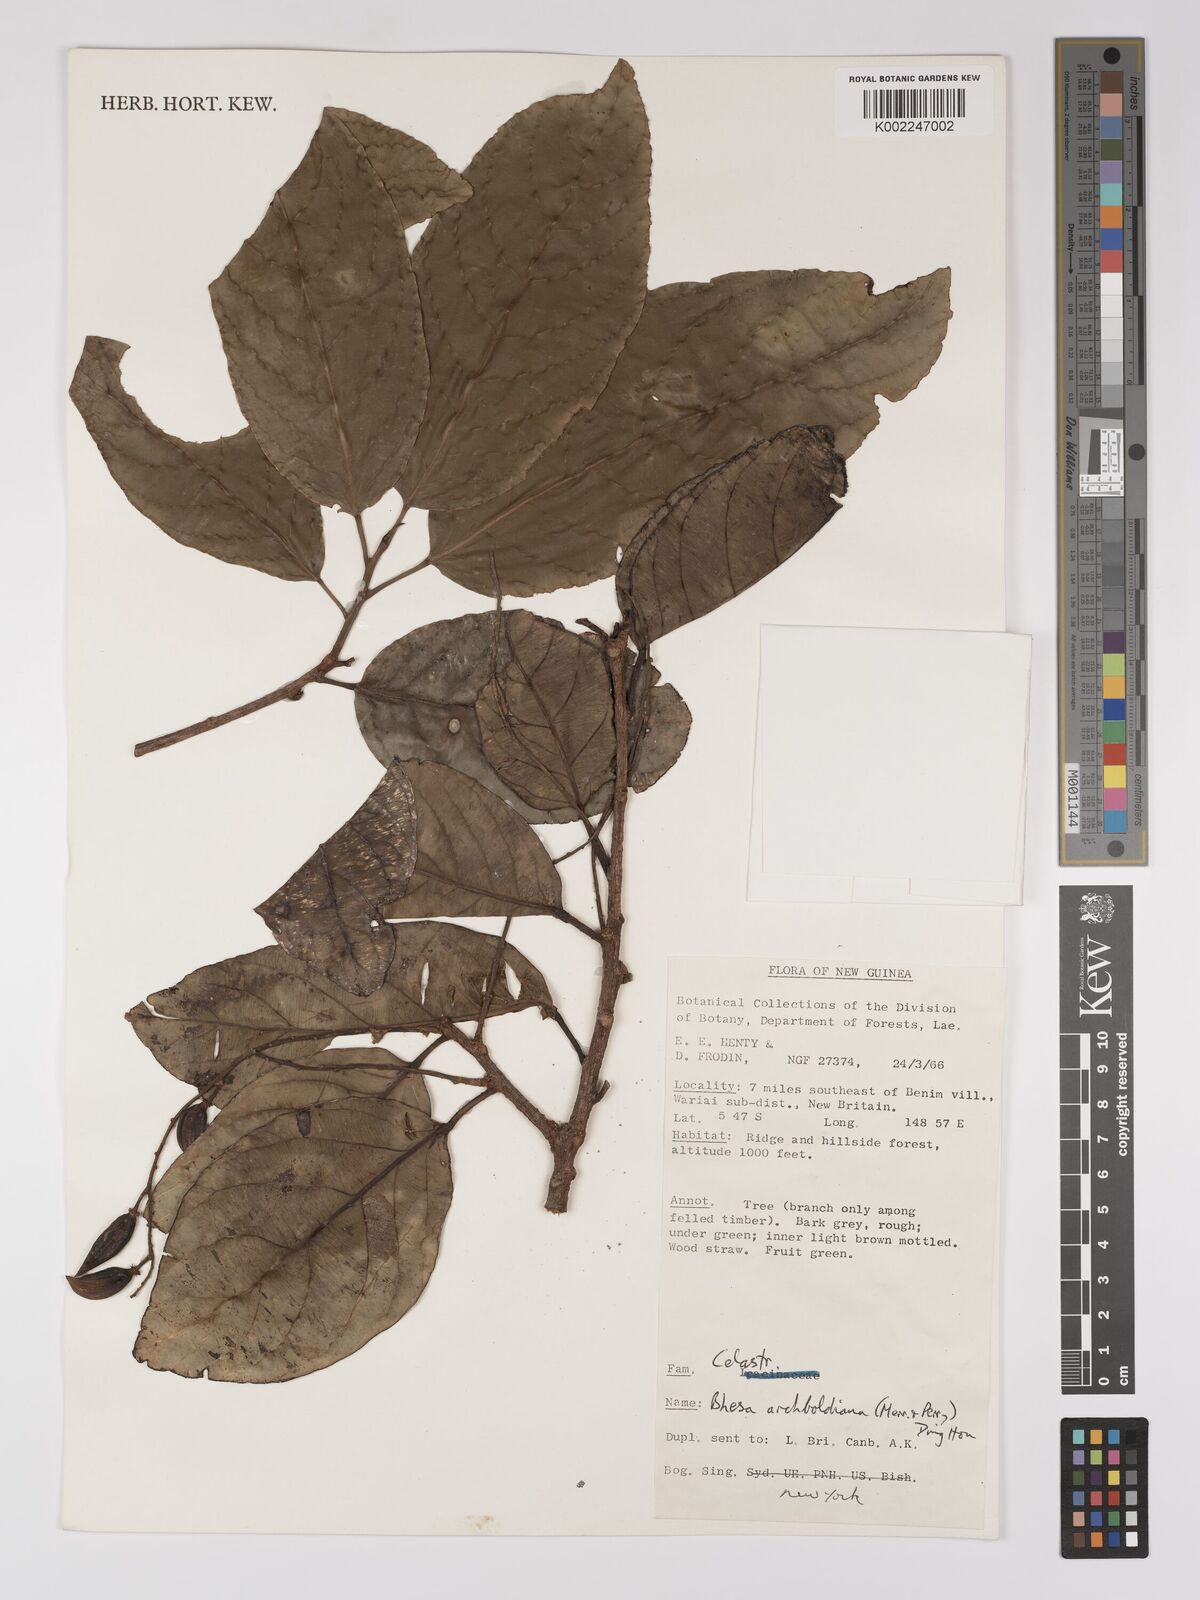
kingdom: Plantae
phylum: Tracheophyta
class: Magnoliopsida
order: Malpighiales
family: Centroplacaceae
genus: Bhesa
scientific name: Bhesa archboldiana
